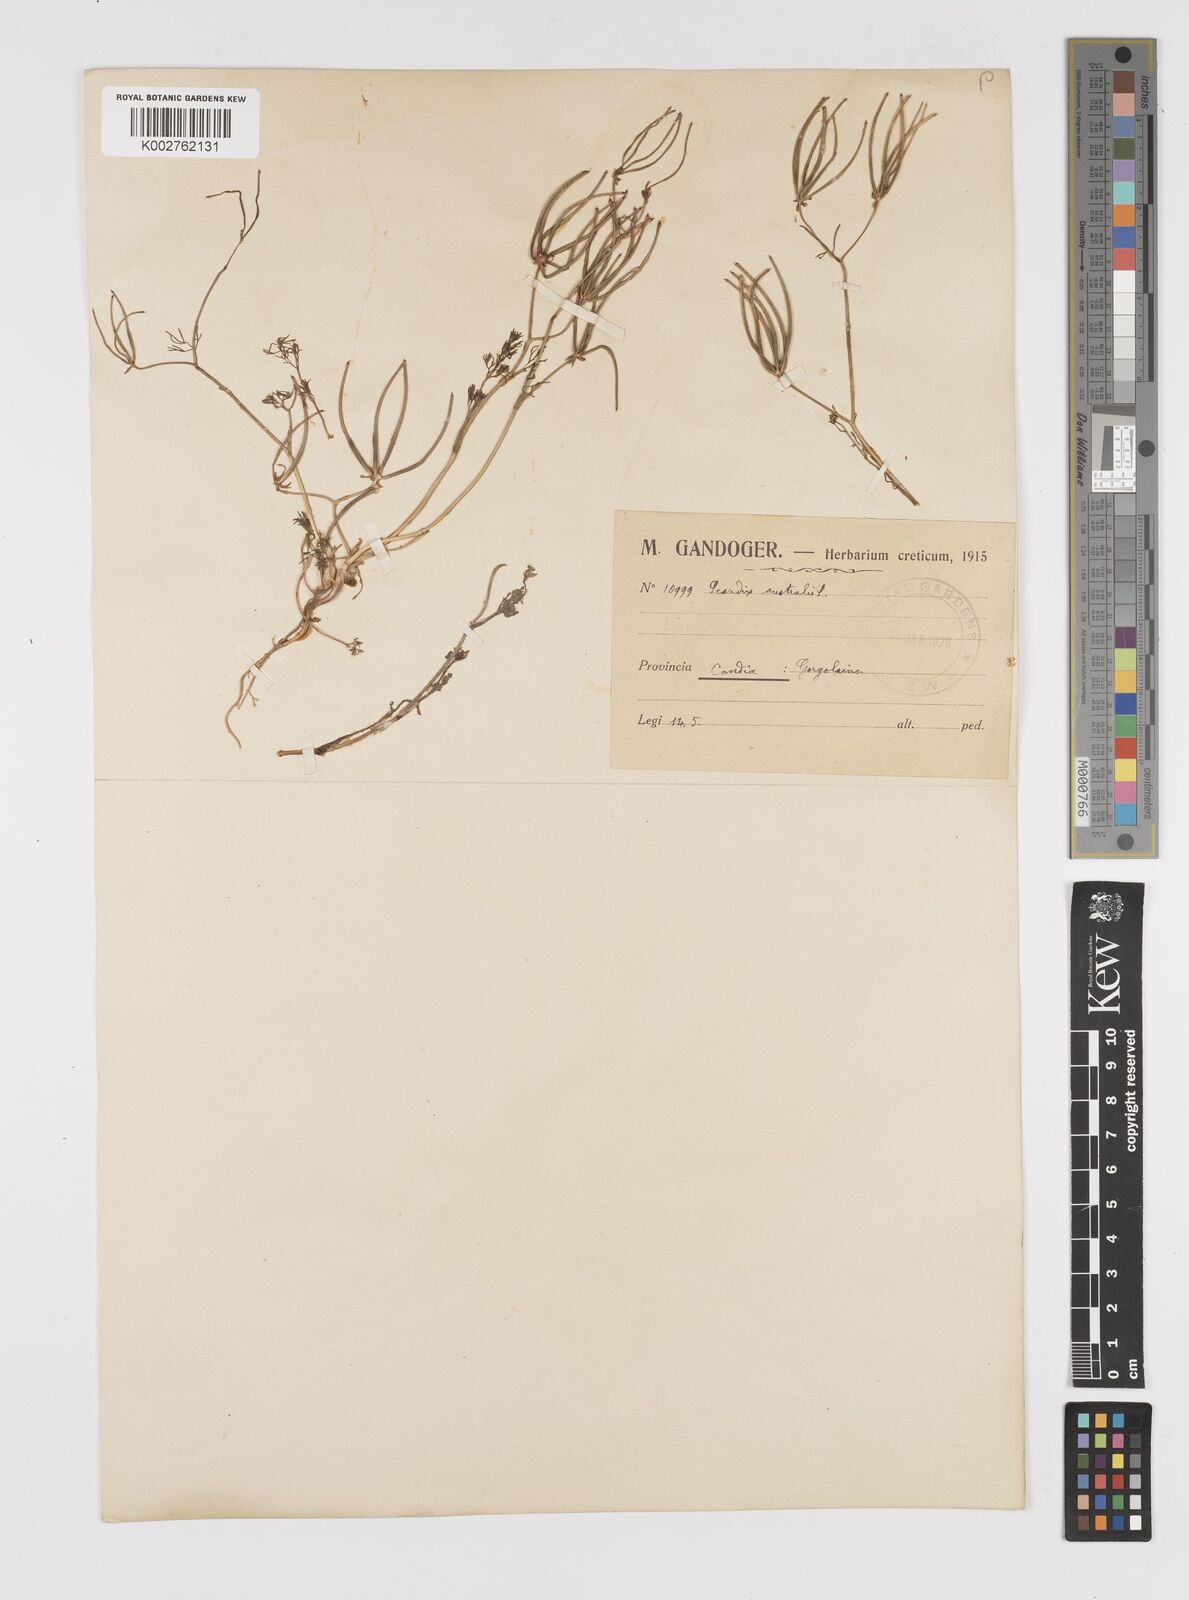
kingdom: Plantae
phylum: Tracheophyta
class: Magnoliopsida
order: Apiales
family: Apiaceae
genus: Scandix
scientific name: Scandix australis
